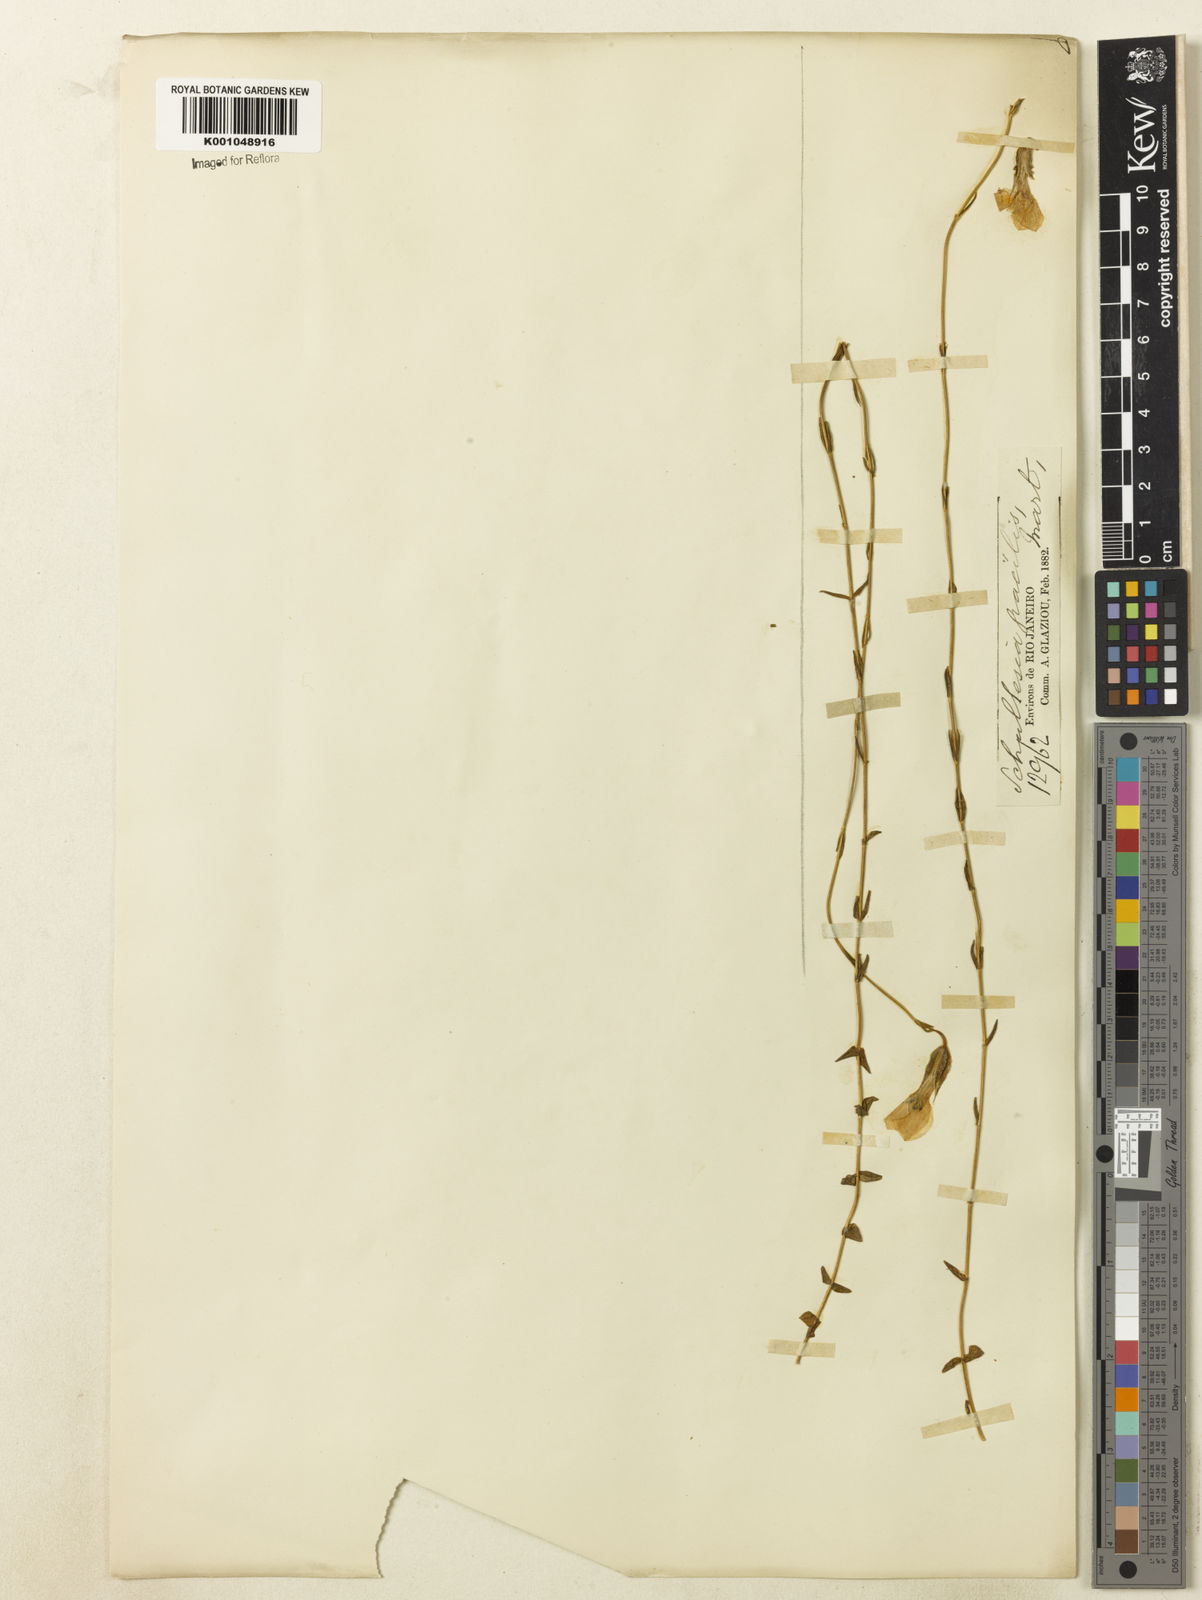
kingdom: Plantae
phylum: Tracheophyta
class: Magnoliopsida
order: Gentianales
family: Gentianaceae
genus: Schultesia
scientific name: Schultesia
